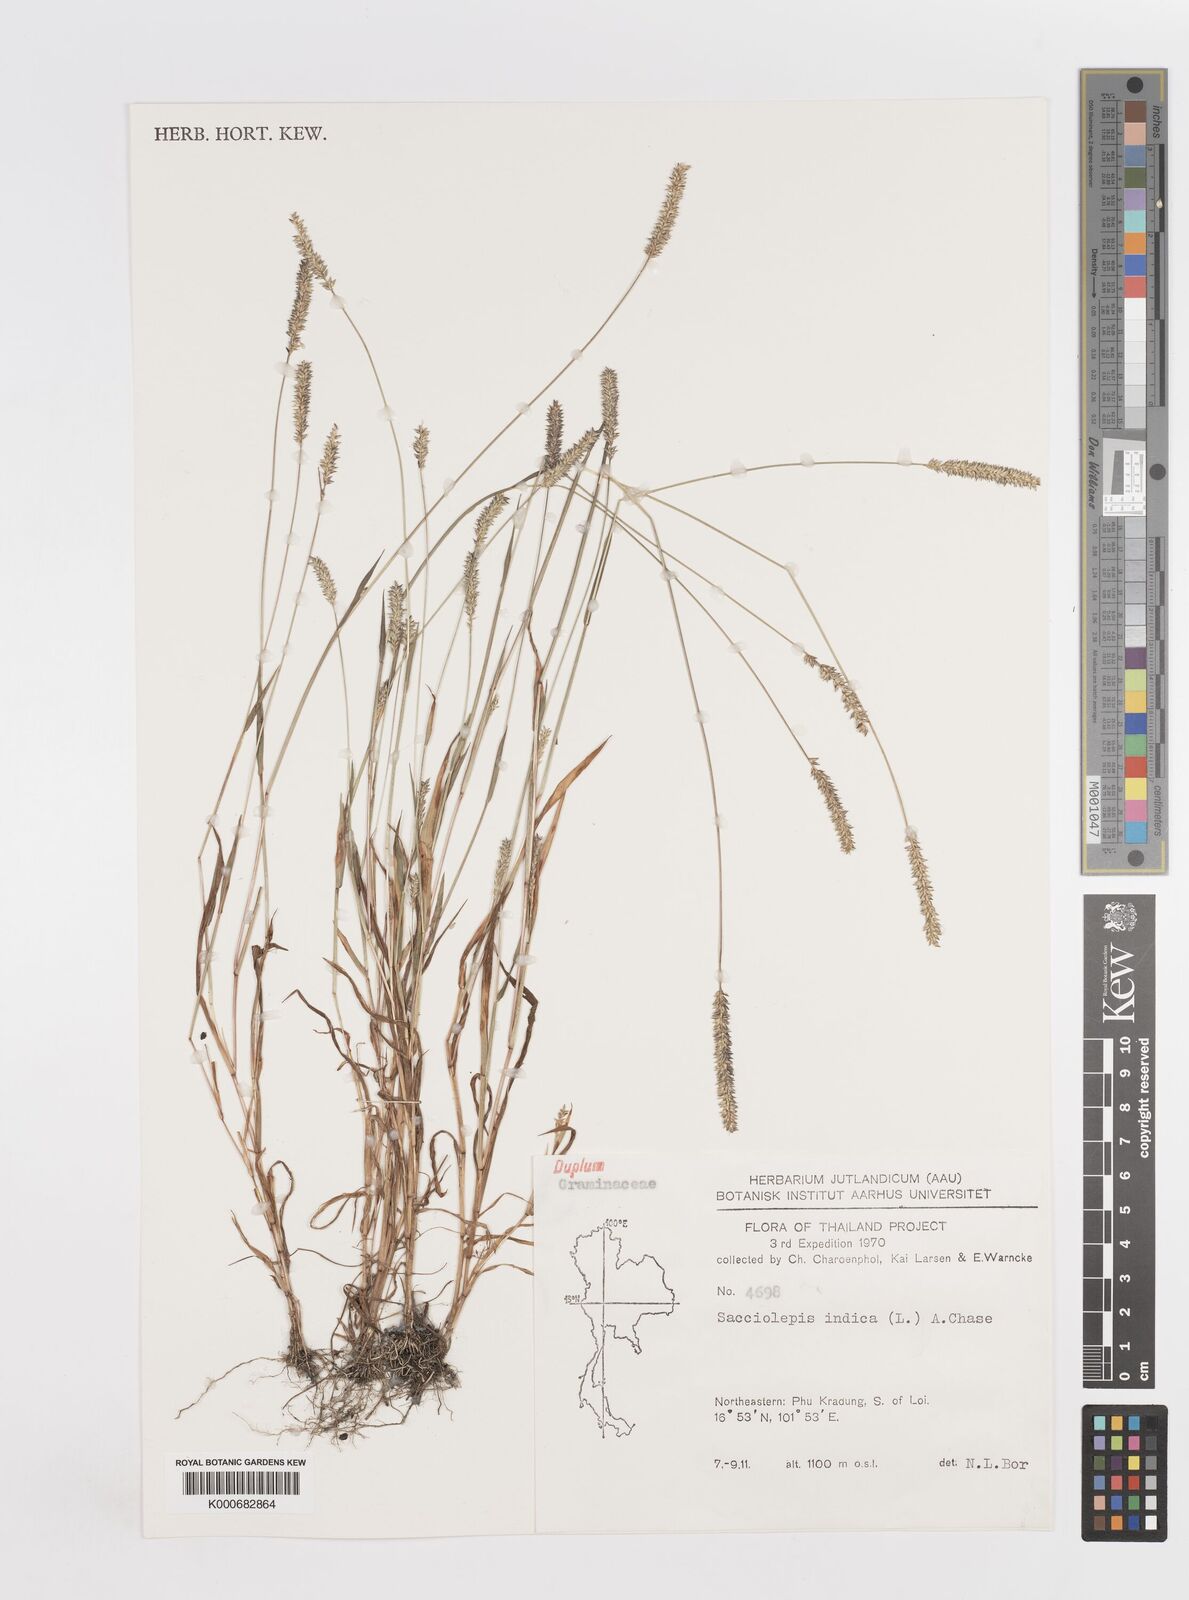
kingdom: Plantae
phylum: Tracheophyta
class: Liliopsida
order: Poales
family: Poaceae
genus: Sacciolepis
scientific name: Sacciolepis indica
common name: Glenwoodgrass
